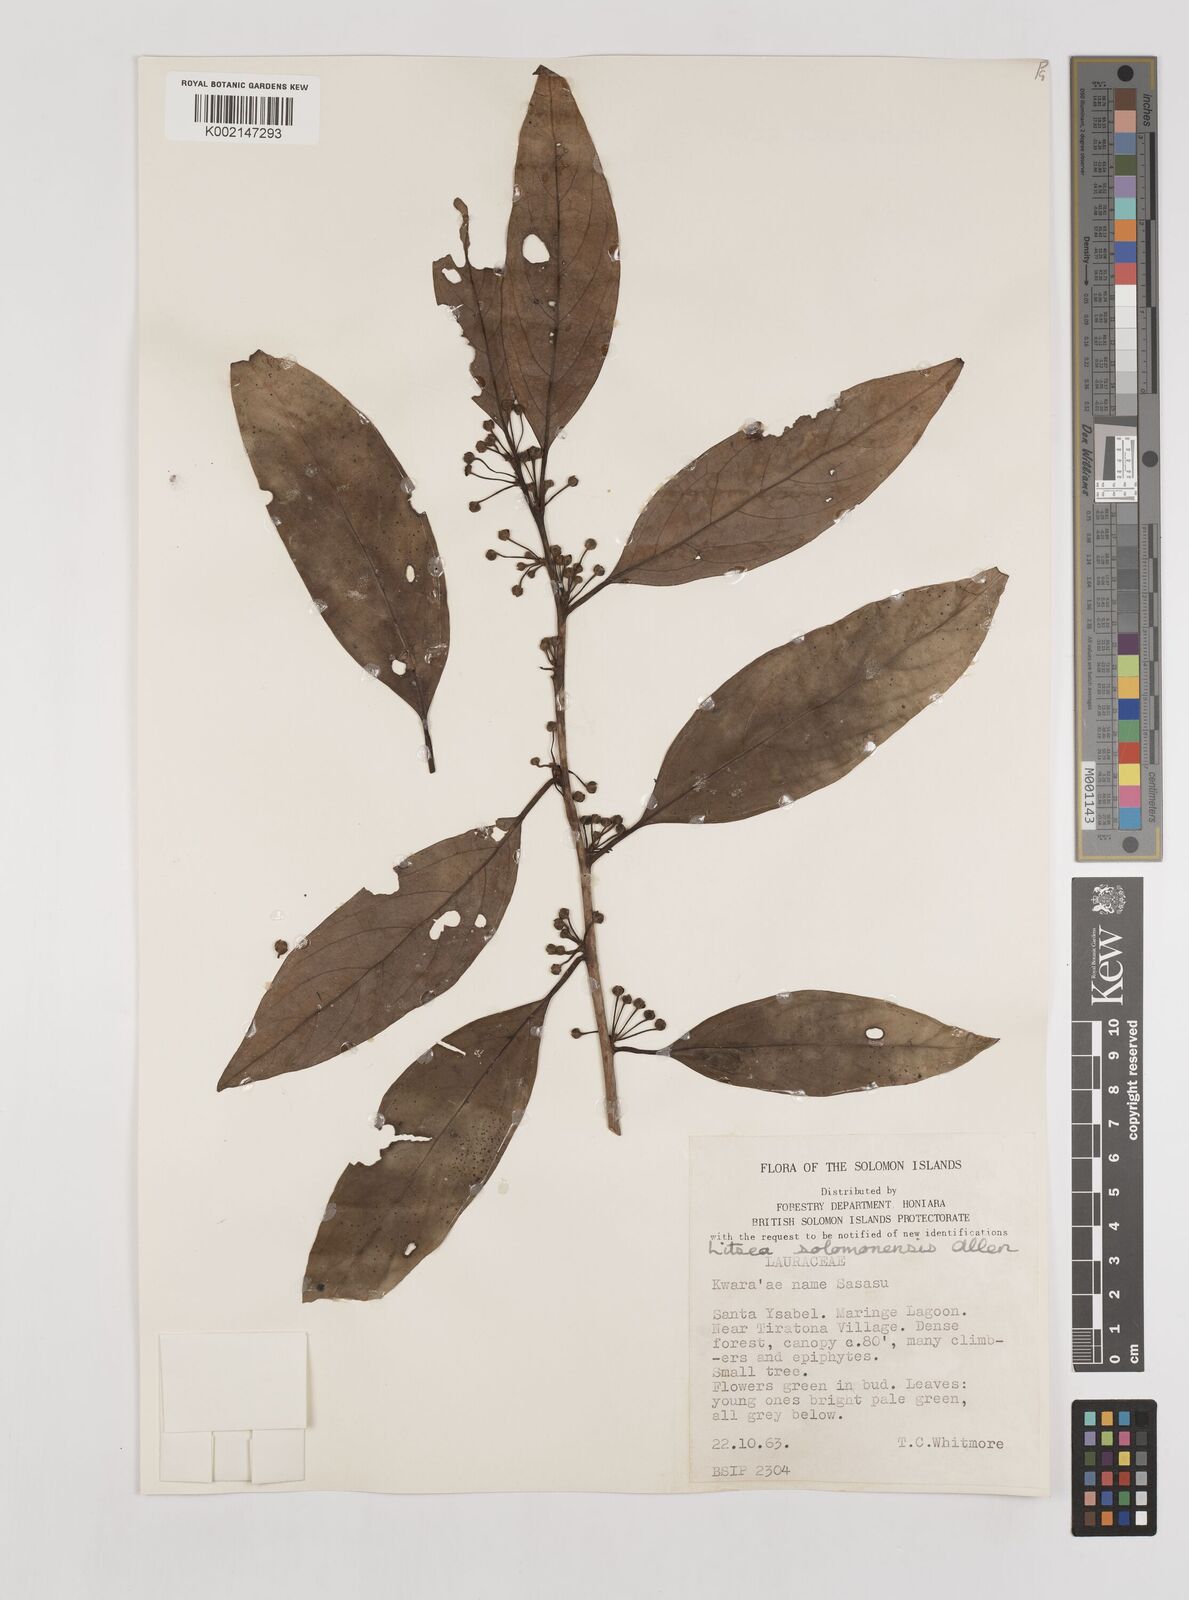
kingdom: Plantae
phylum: Tracheophyta
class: Magnoliopsida
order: Laurales
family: Lauraceae
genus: Litsea
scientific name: Litsea timoriana
